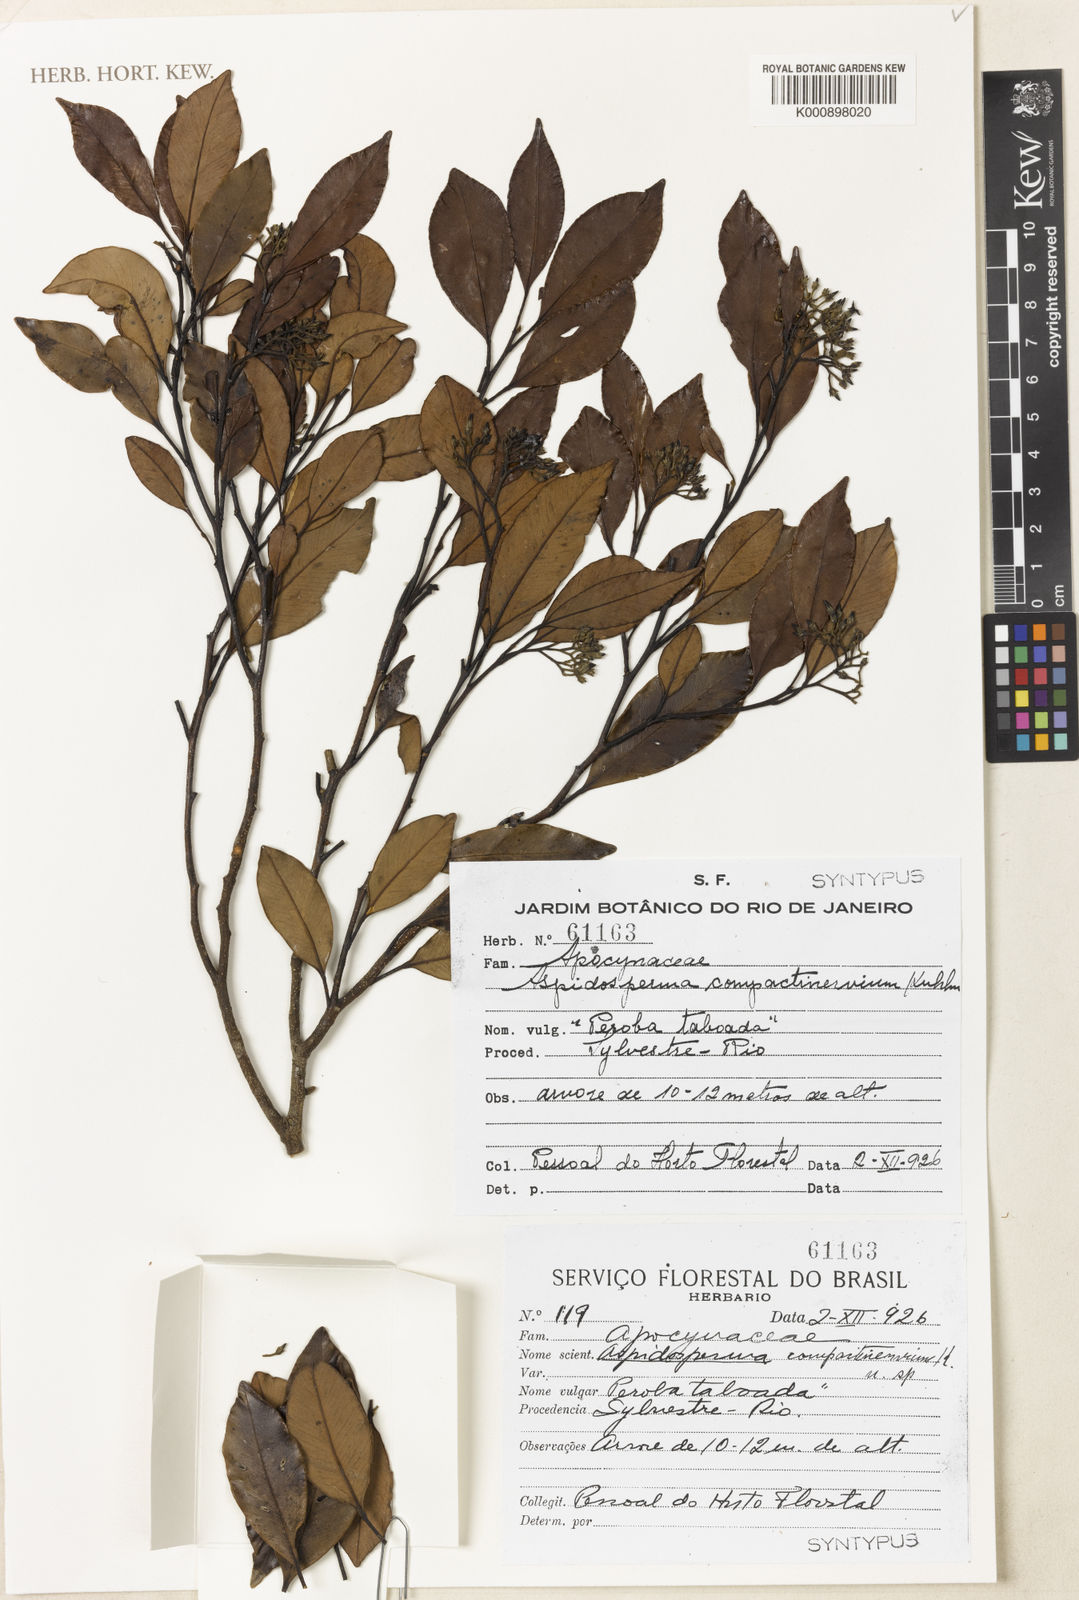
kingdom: Plantae
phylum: Tracheophyta
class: Magnoliopsida
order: Gentianales
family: Apocynaceae
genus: Aspidosperma
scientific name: Aspidosperma eburneum
